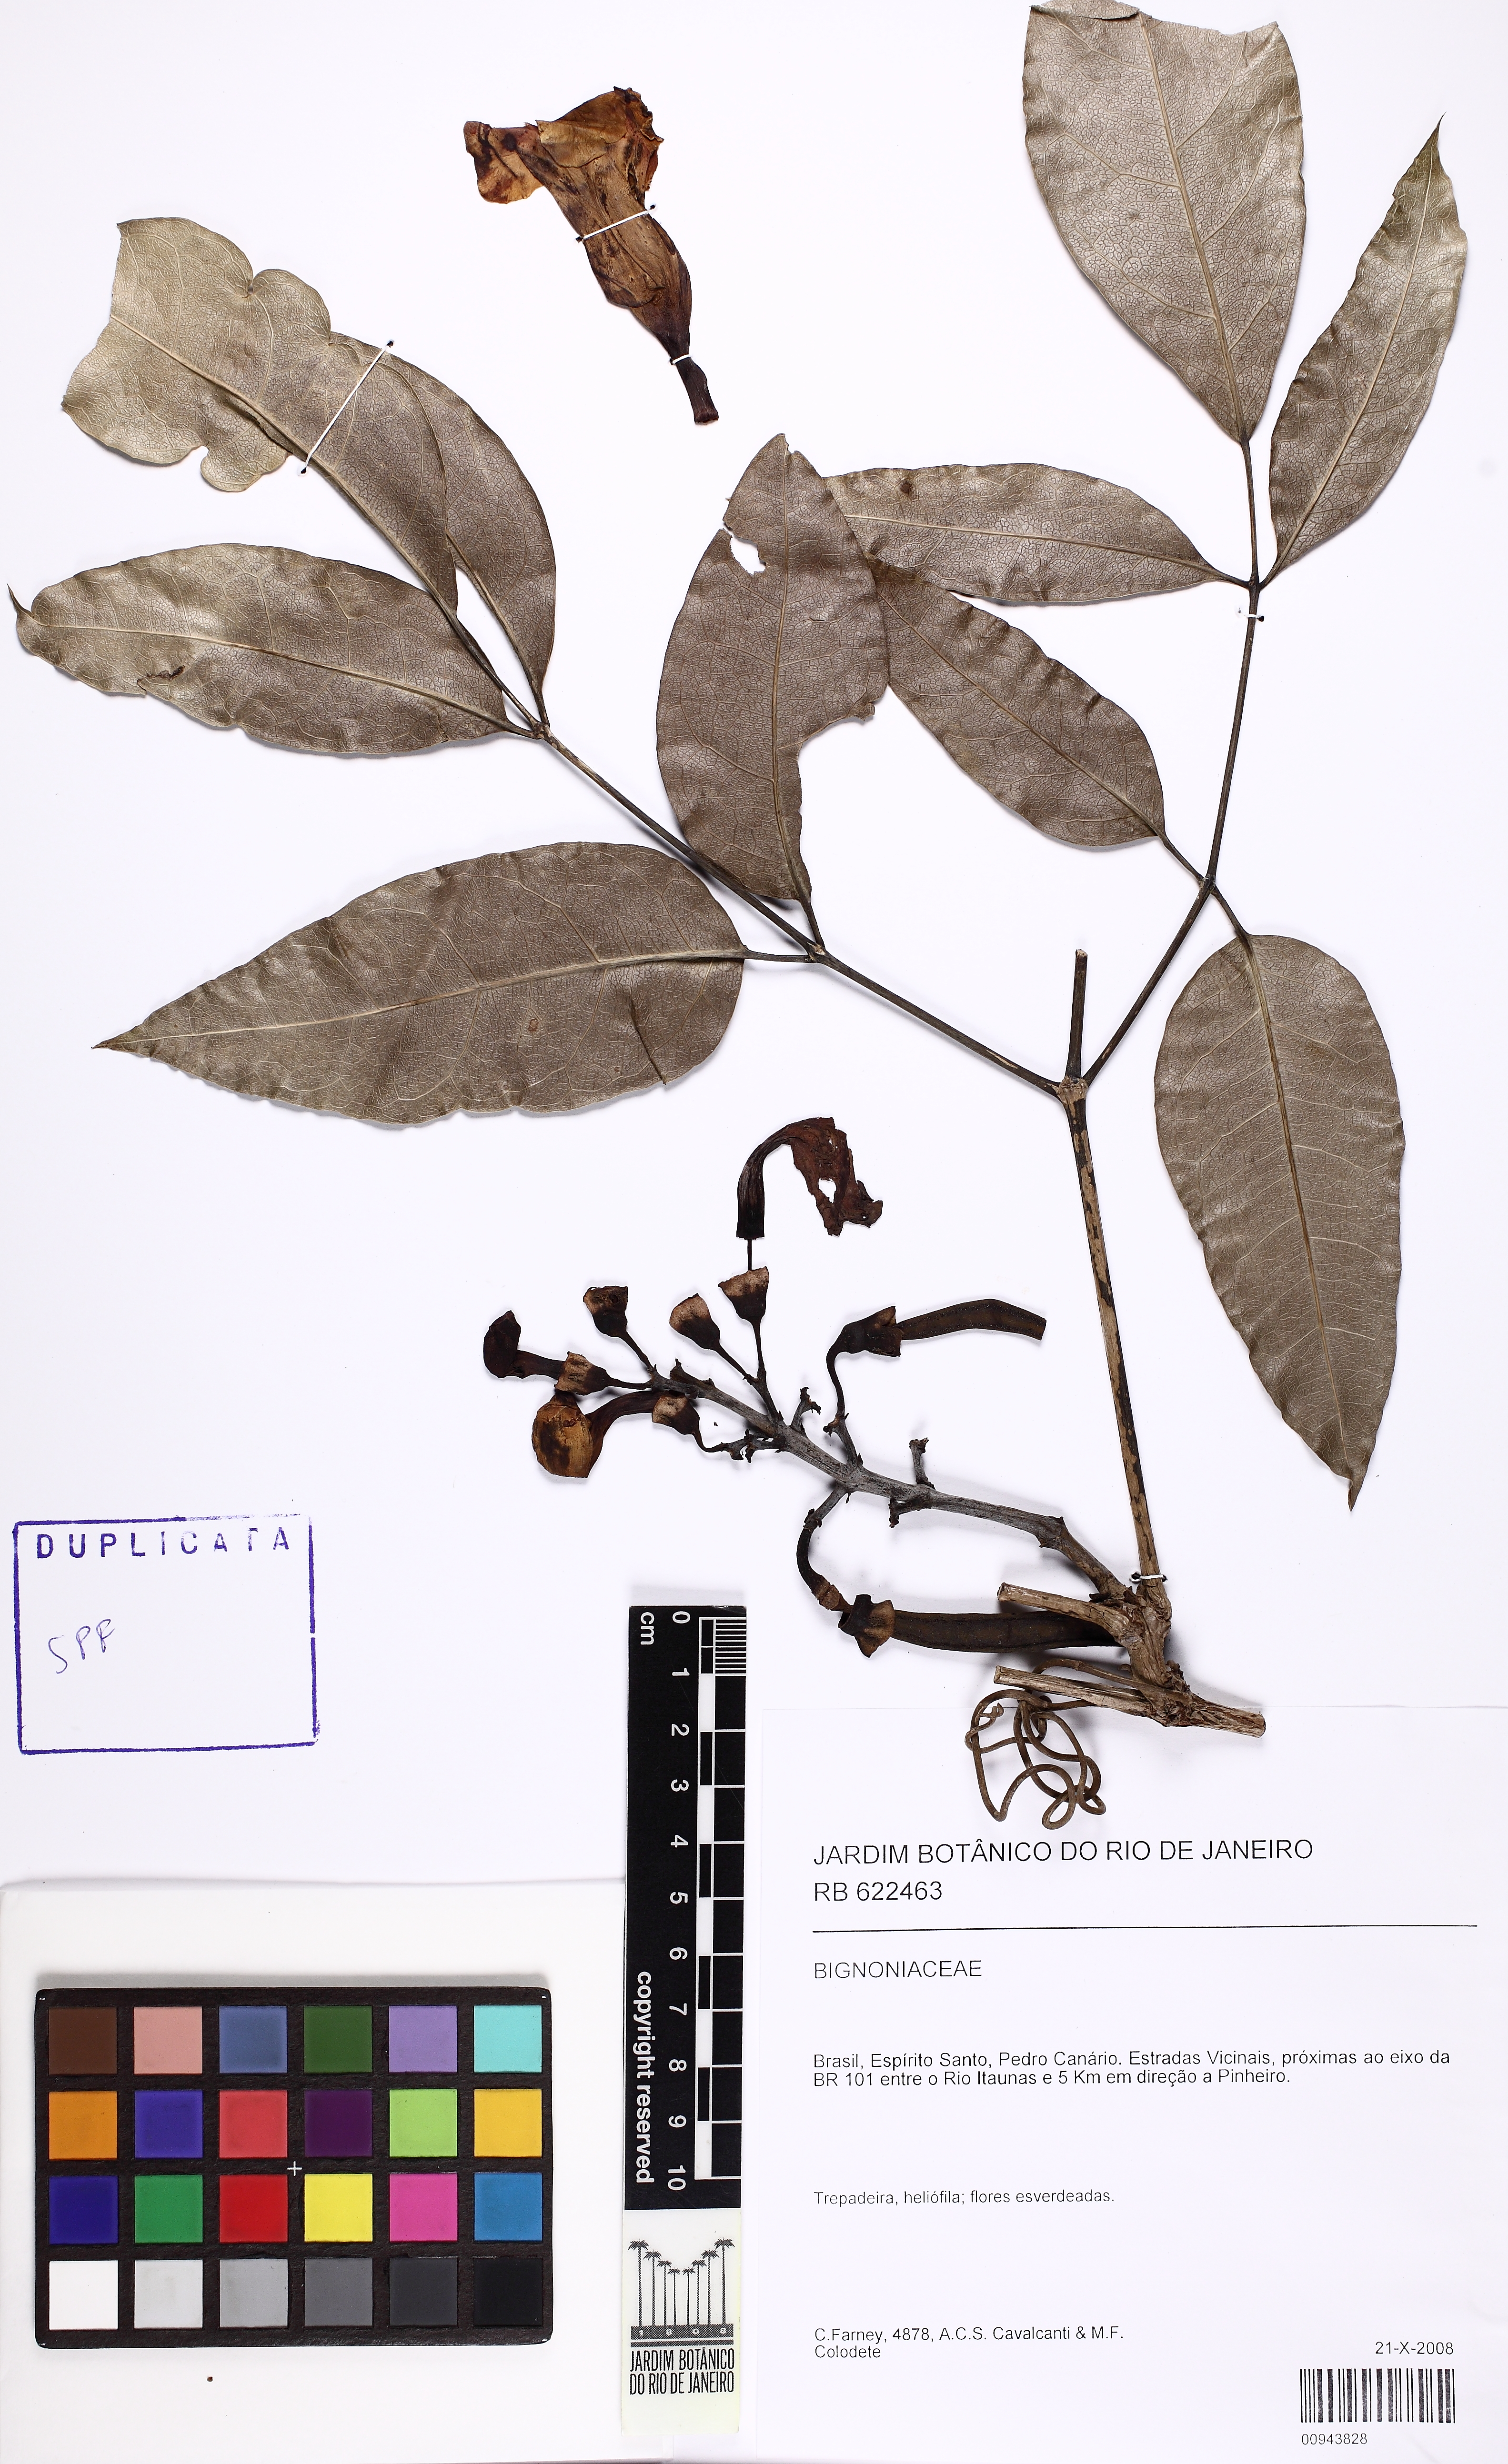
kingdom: Plantae
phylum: Tracheophyta
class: Magnoliopsida
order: Lamiales
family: Bignoniaceae
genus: Adenocalymma
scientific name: Adenocalymma
